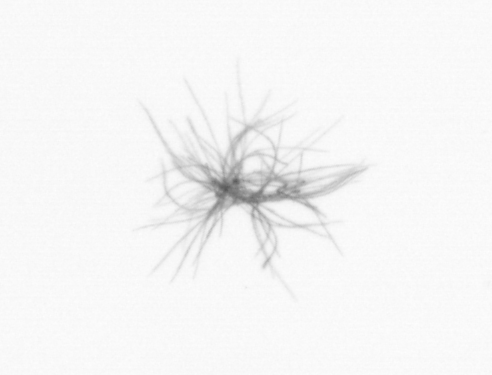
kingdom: Bacteria
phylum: Cyanobacteria
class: Cyanobacteriia
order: Cyanobacteriales
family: Microcoleaceae
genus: Trichodesmium
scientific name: Trichodesmium
